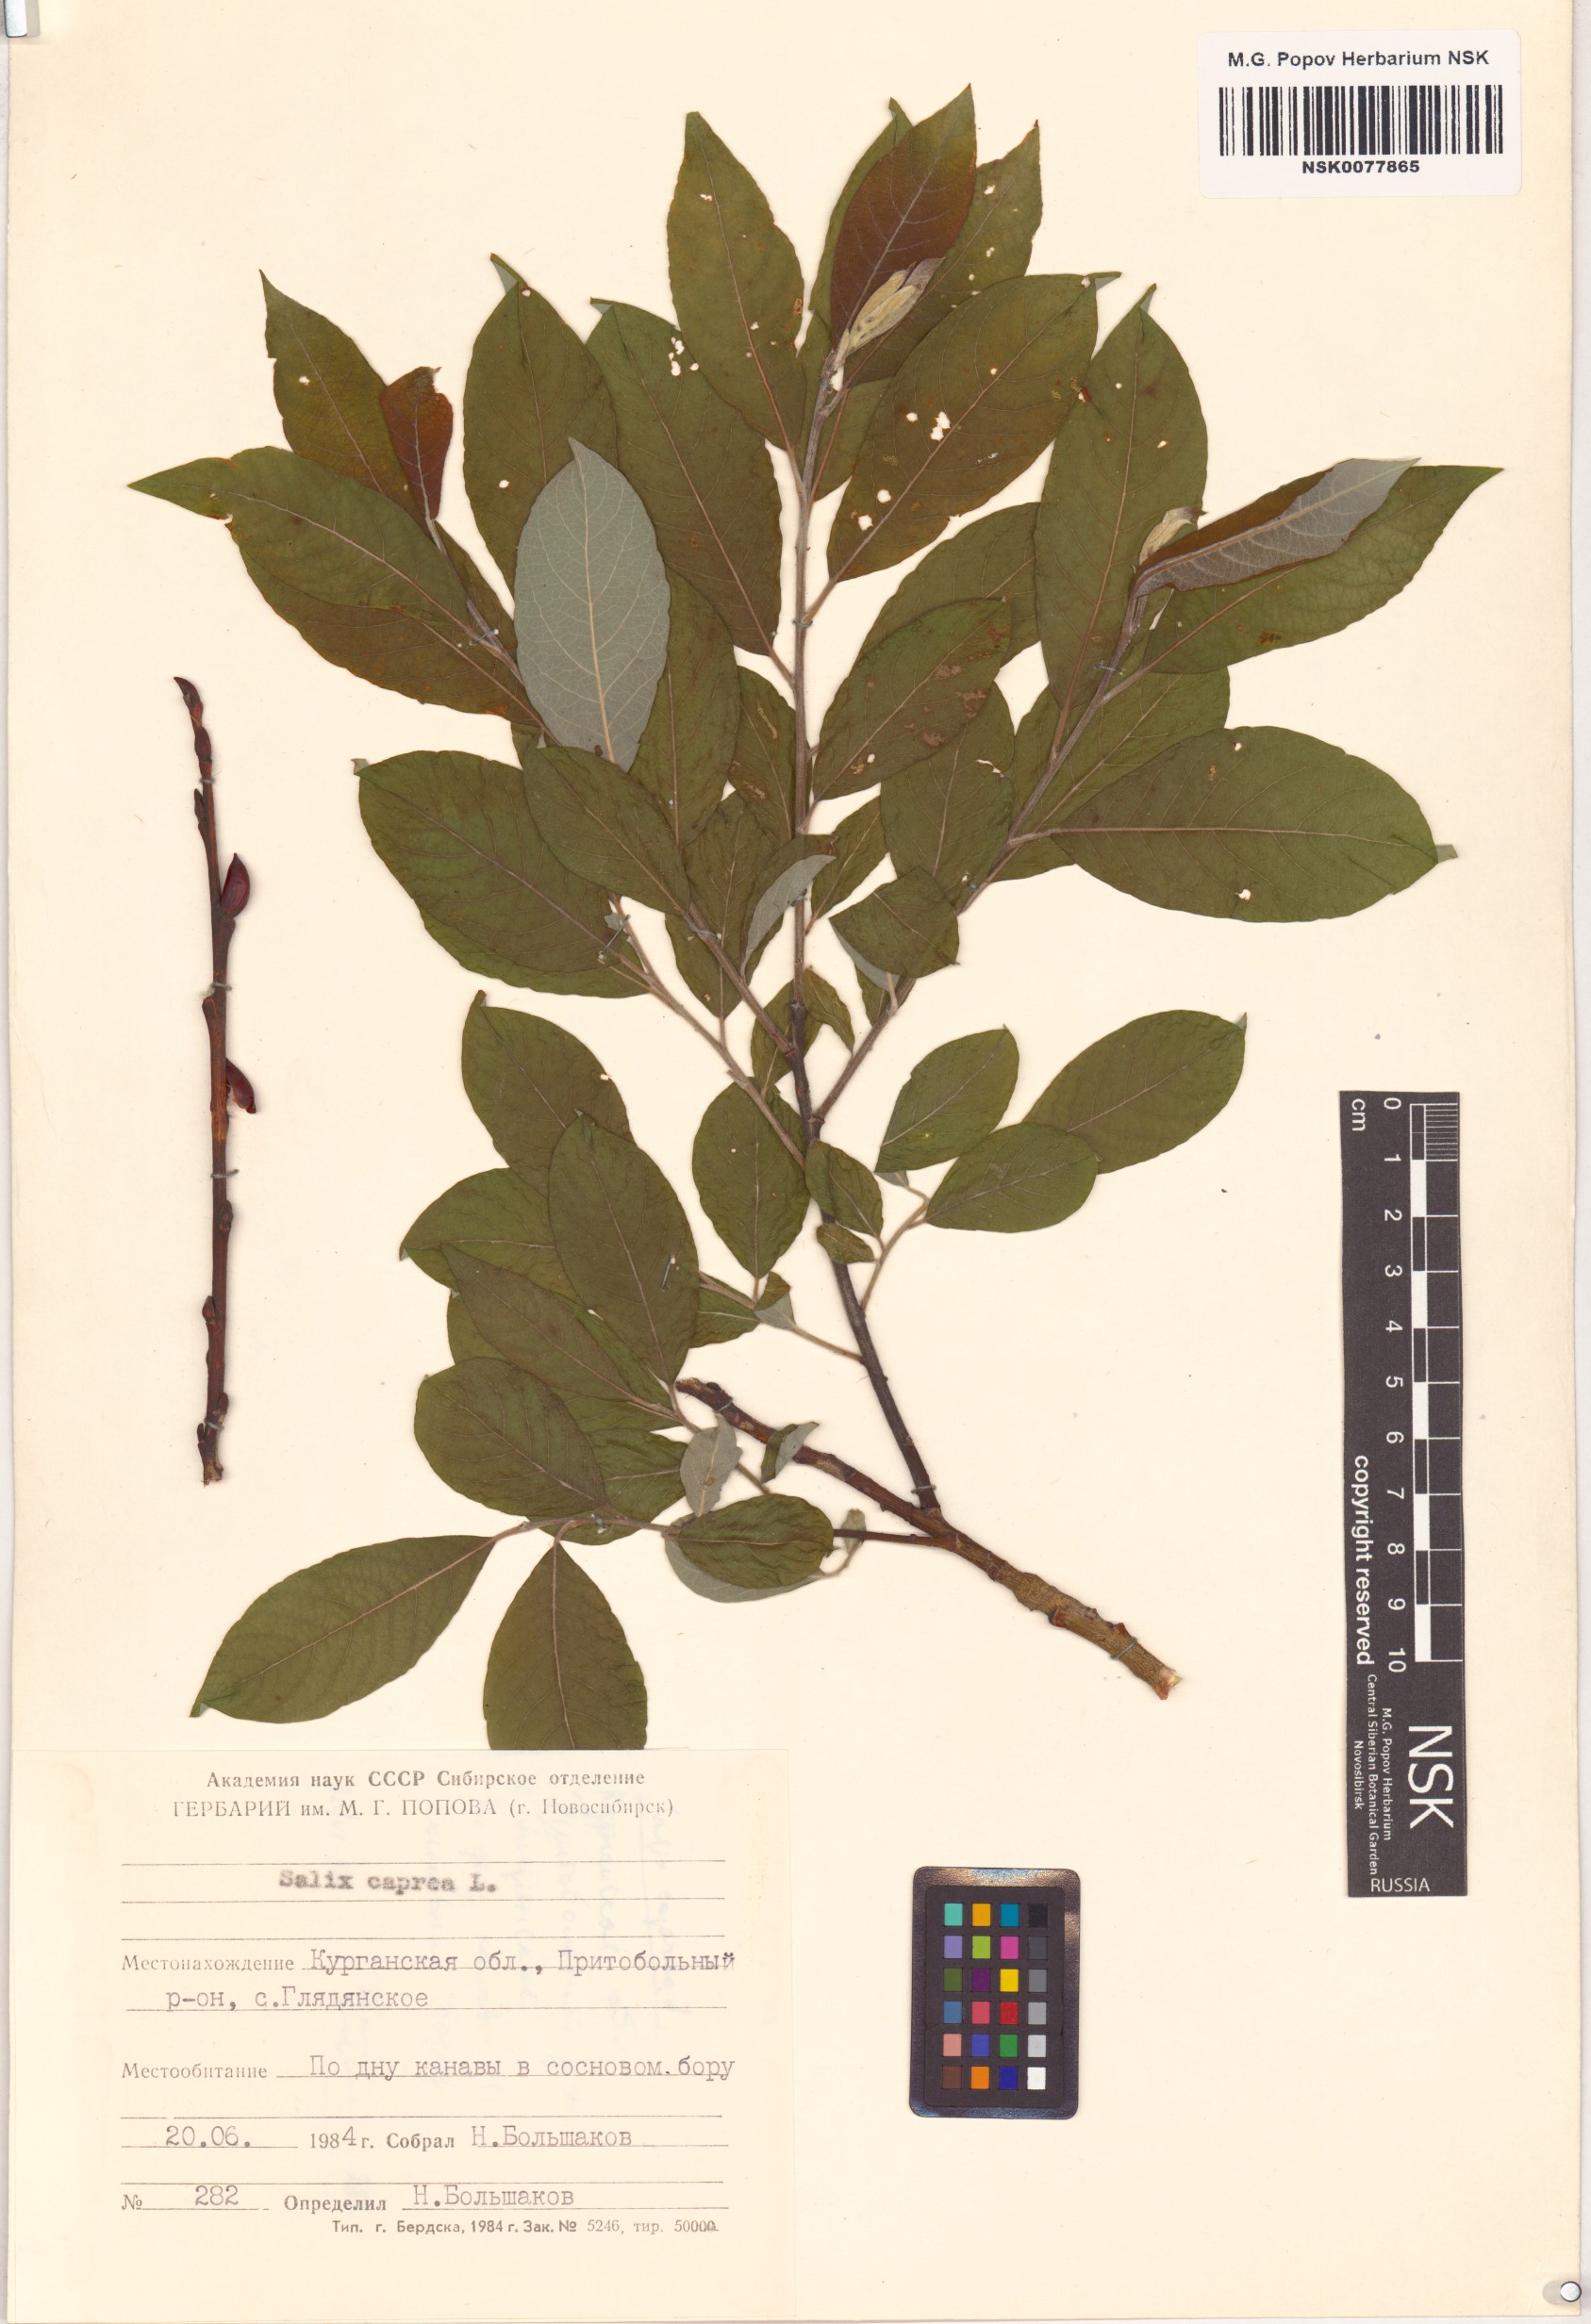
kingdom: Plantae
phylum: Tracheophyta
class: Magnoliopsida
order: Malpighiales
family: Salicaceae
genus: Salix
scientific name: Salix caprea
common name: Goat willow
